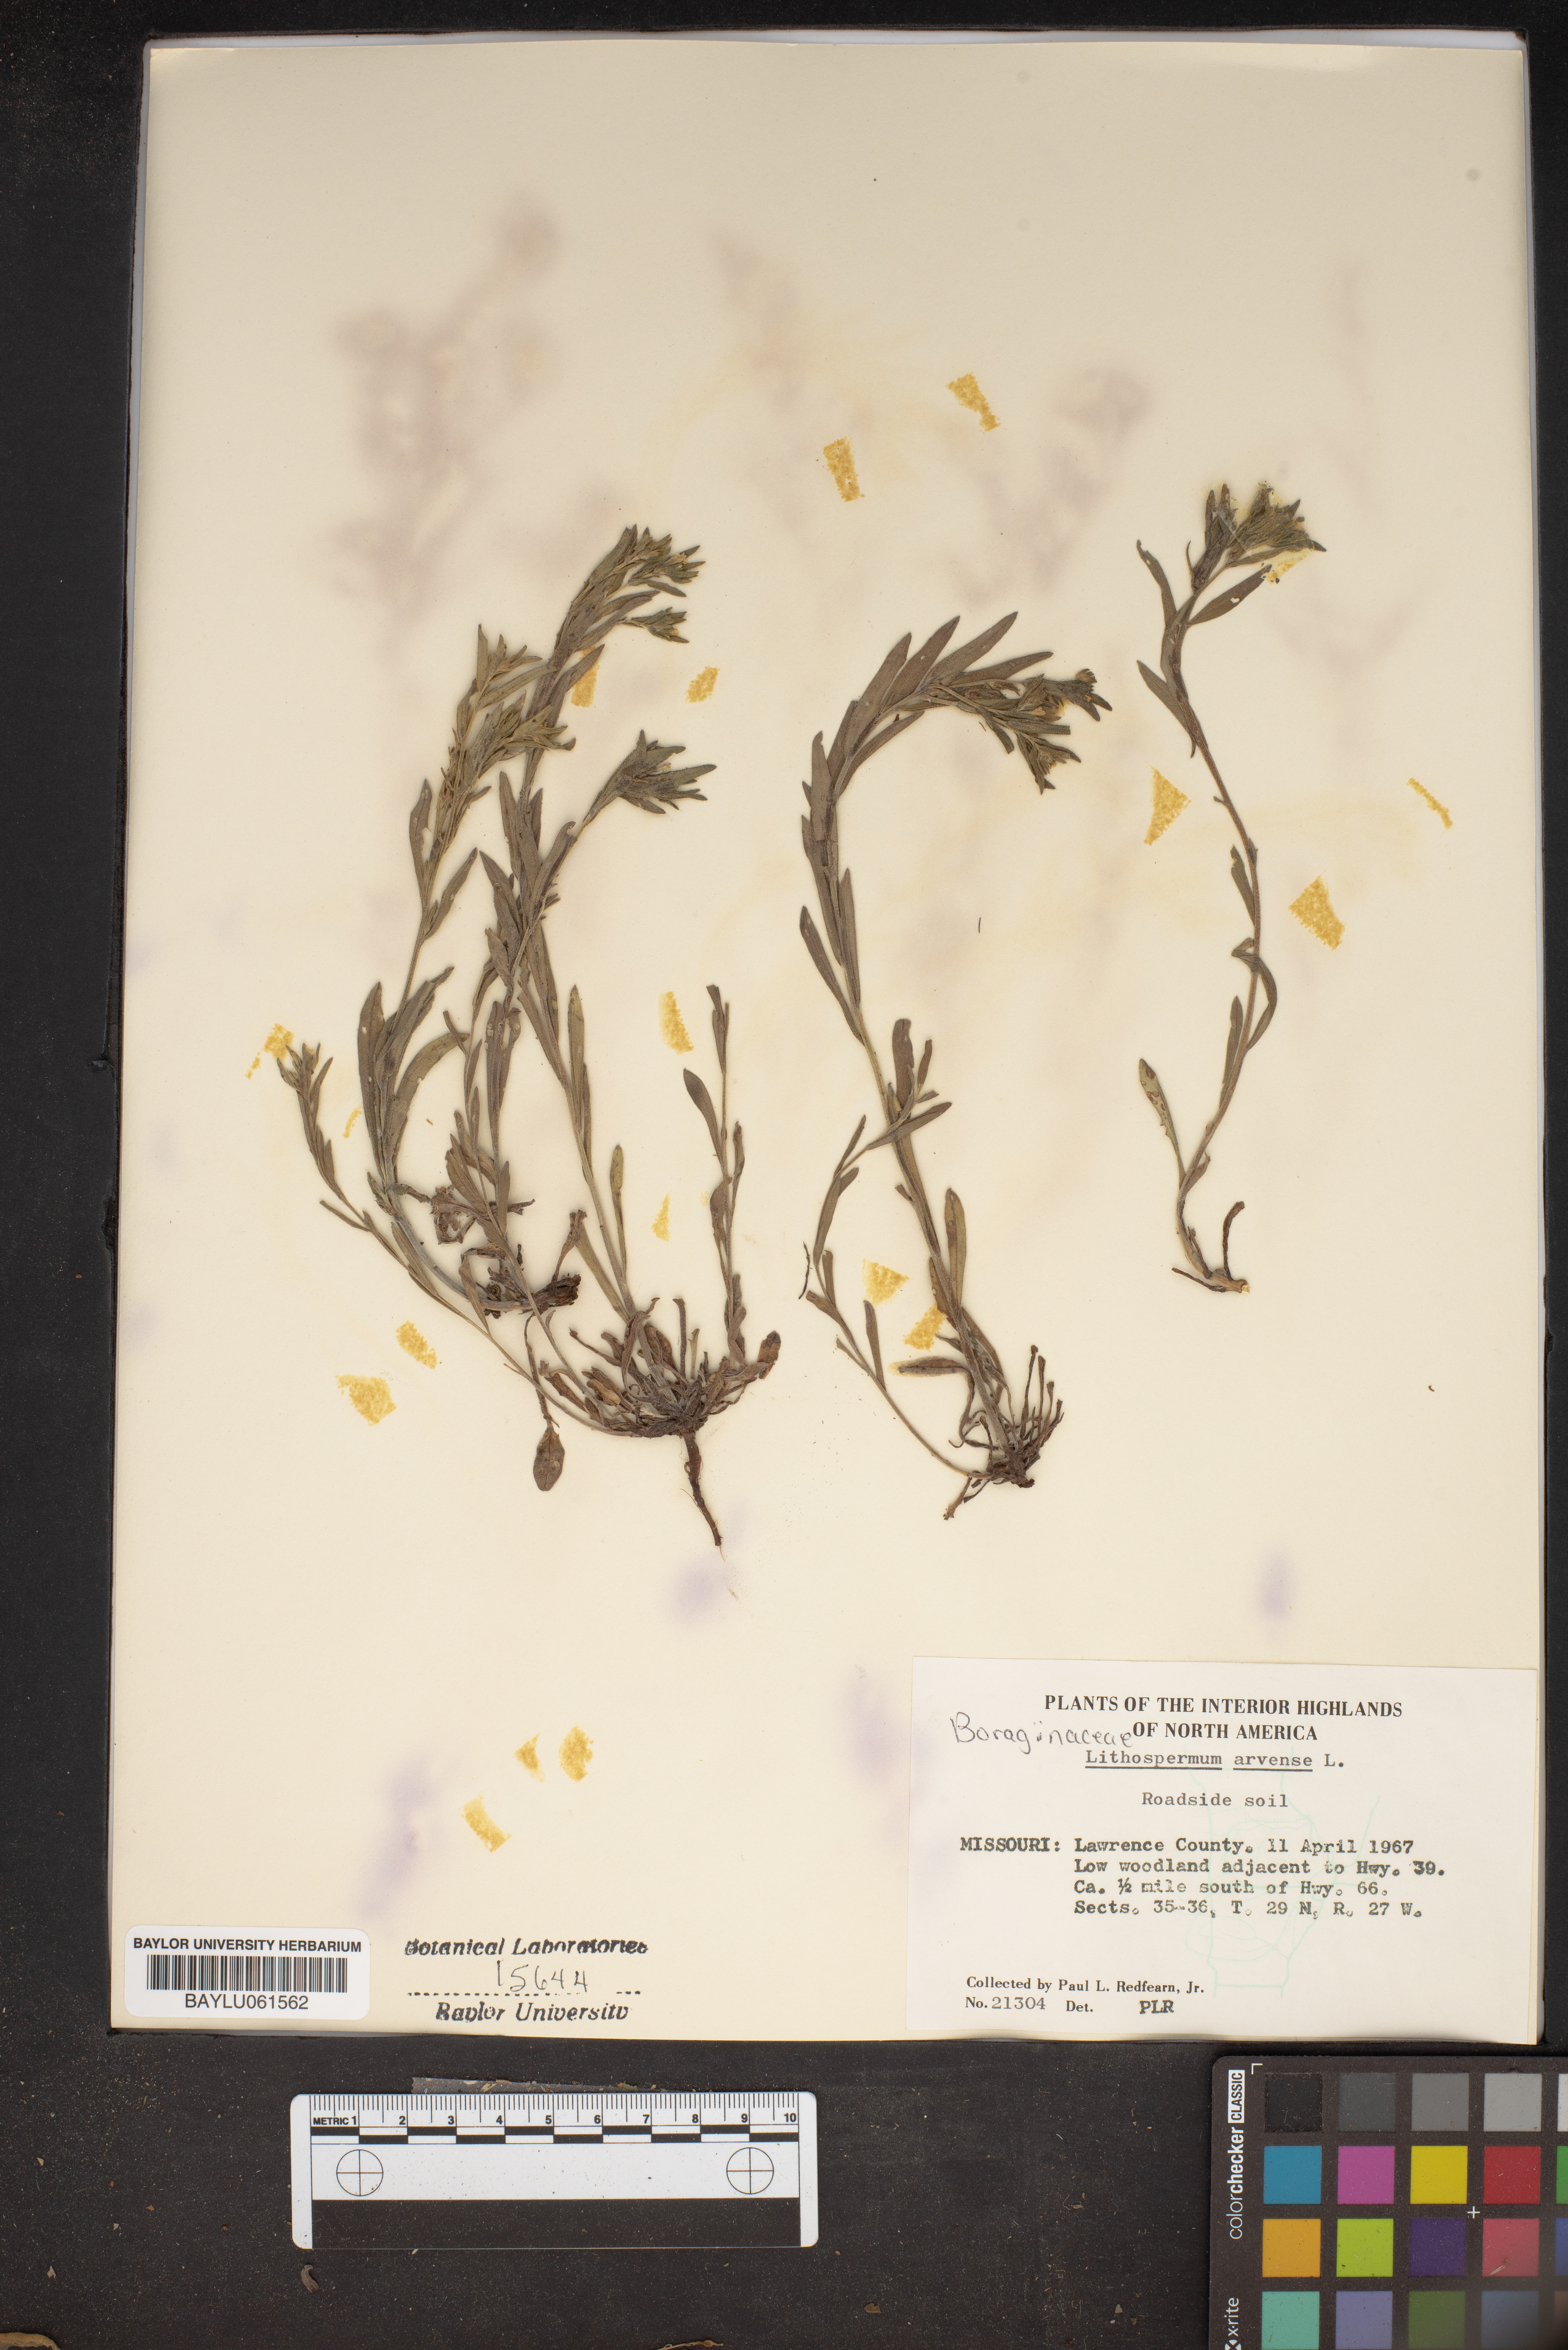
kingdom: Plantae
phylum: Tracheophyta
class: Magnoliopsida
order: Boraginales
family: Boraginaceae
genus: Lithospermum
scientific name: Lithospermum erythrorhizon
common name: Purple gromwell
